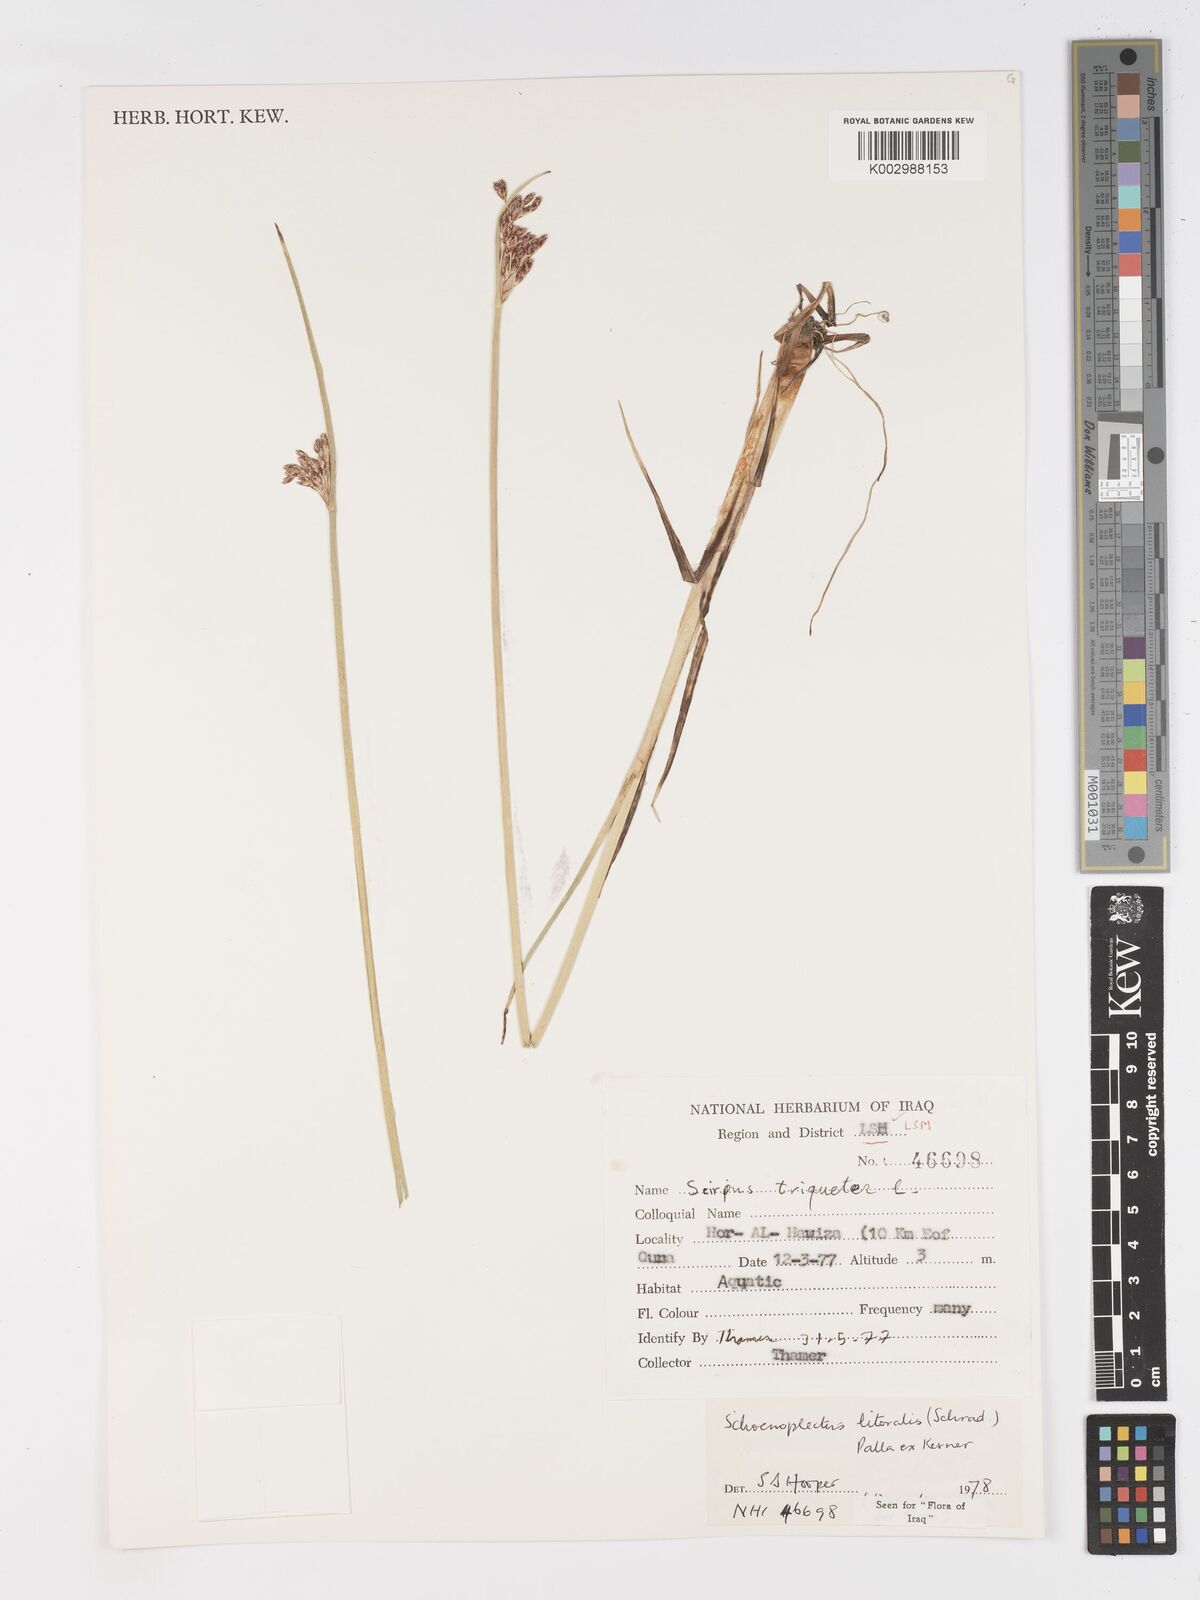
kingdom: Plantae
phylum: Tracheophyta
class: Liliopsida
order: Poales
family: Cyperaceae
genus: Schoenoplectus
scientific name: Schoenoplectus litoralis
